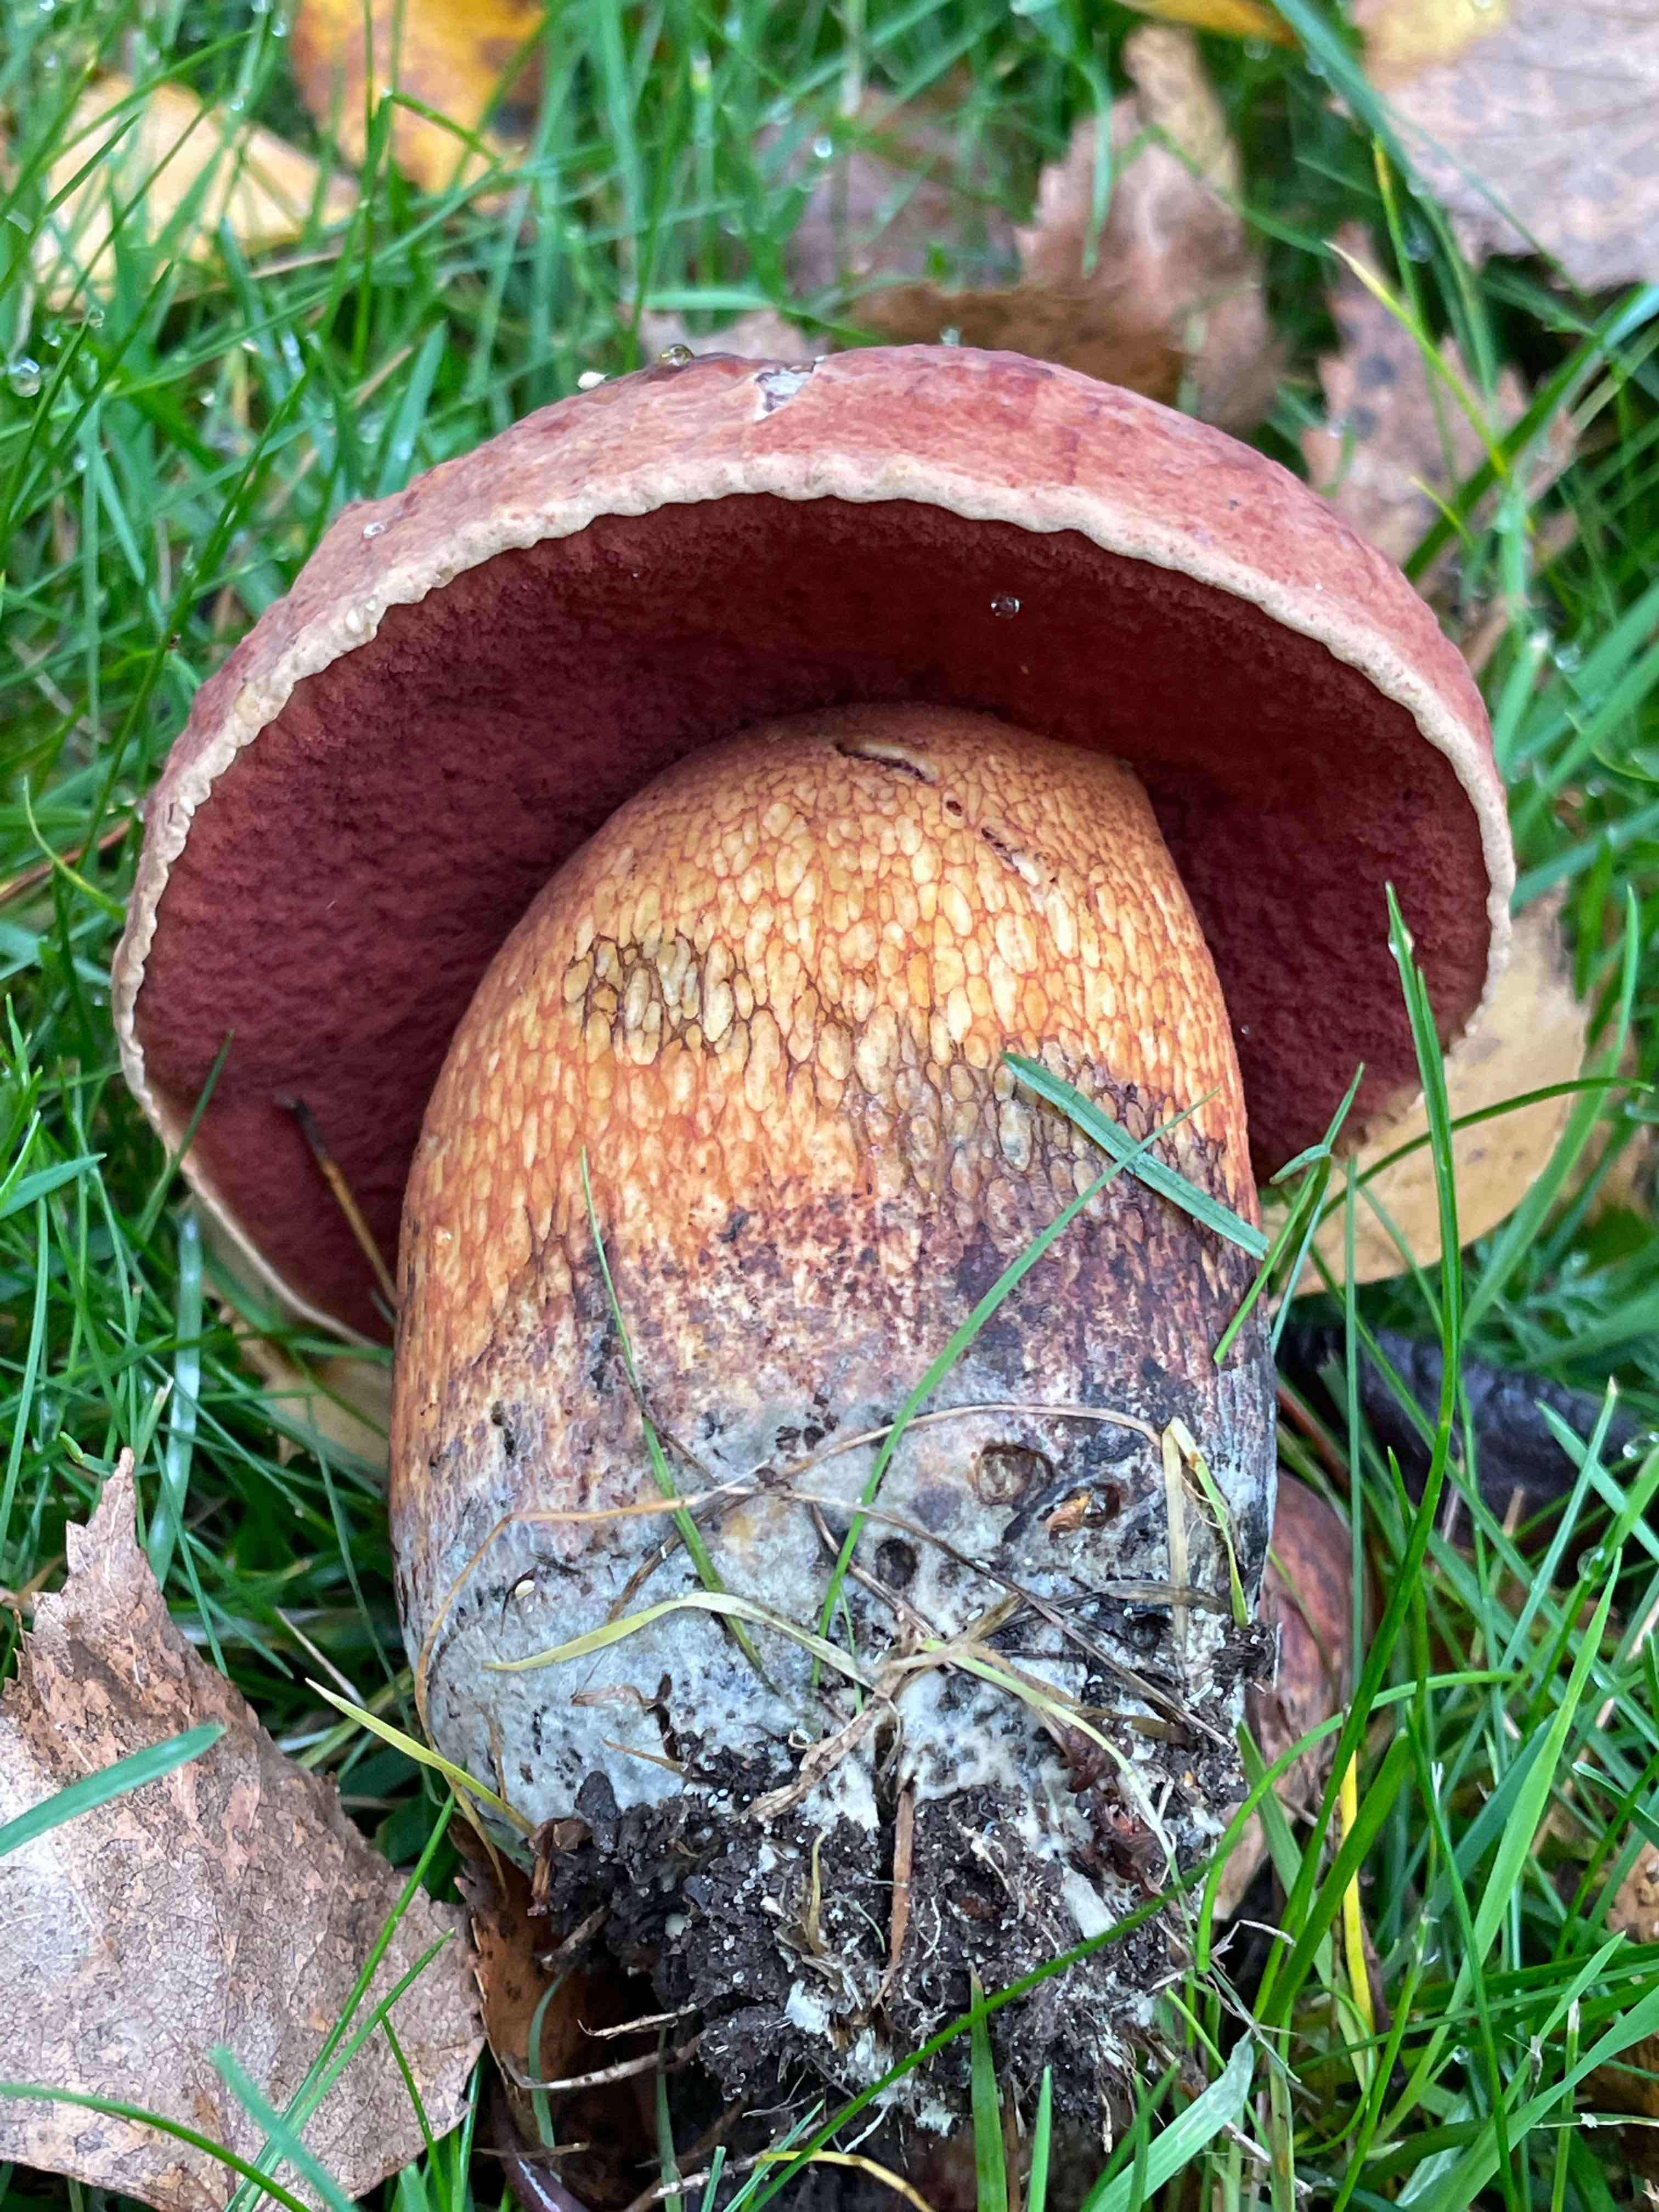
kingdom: Fungi
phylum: Basidiomycota
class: Agaricomycetes
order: Boletales
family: Boletaceae
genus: Suillellus
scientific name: Suillellus luridus
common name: netstokket indigorørhat
